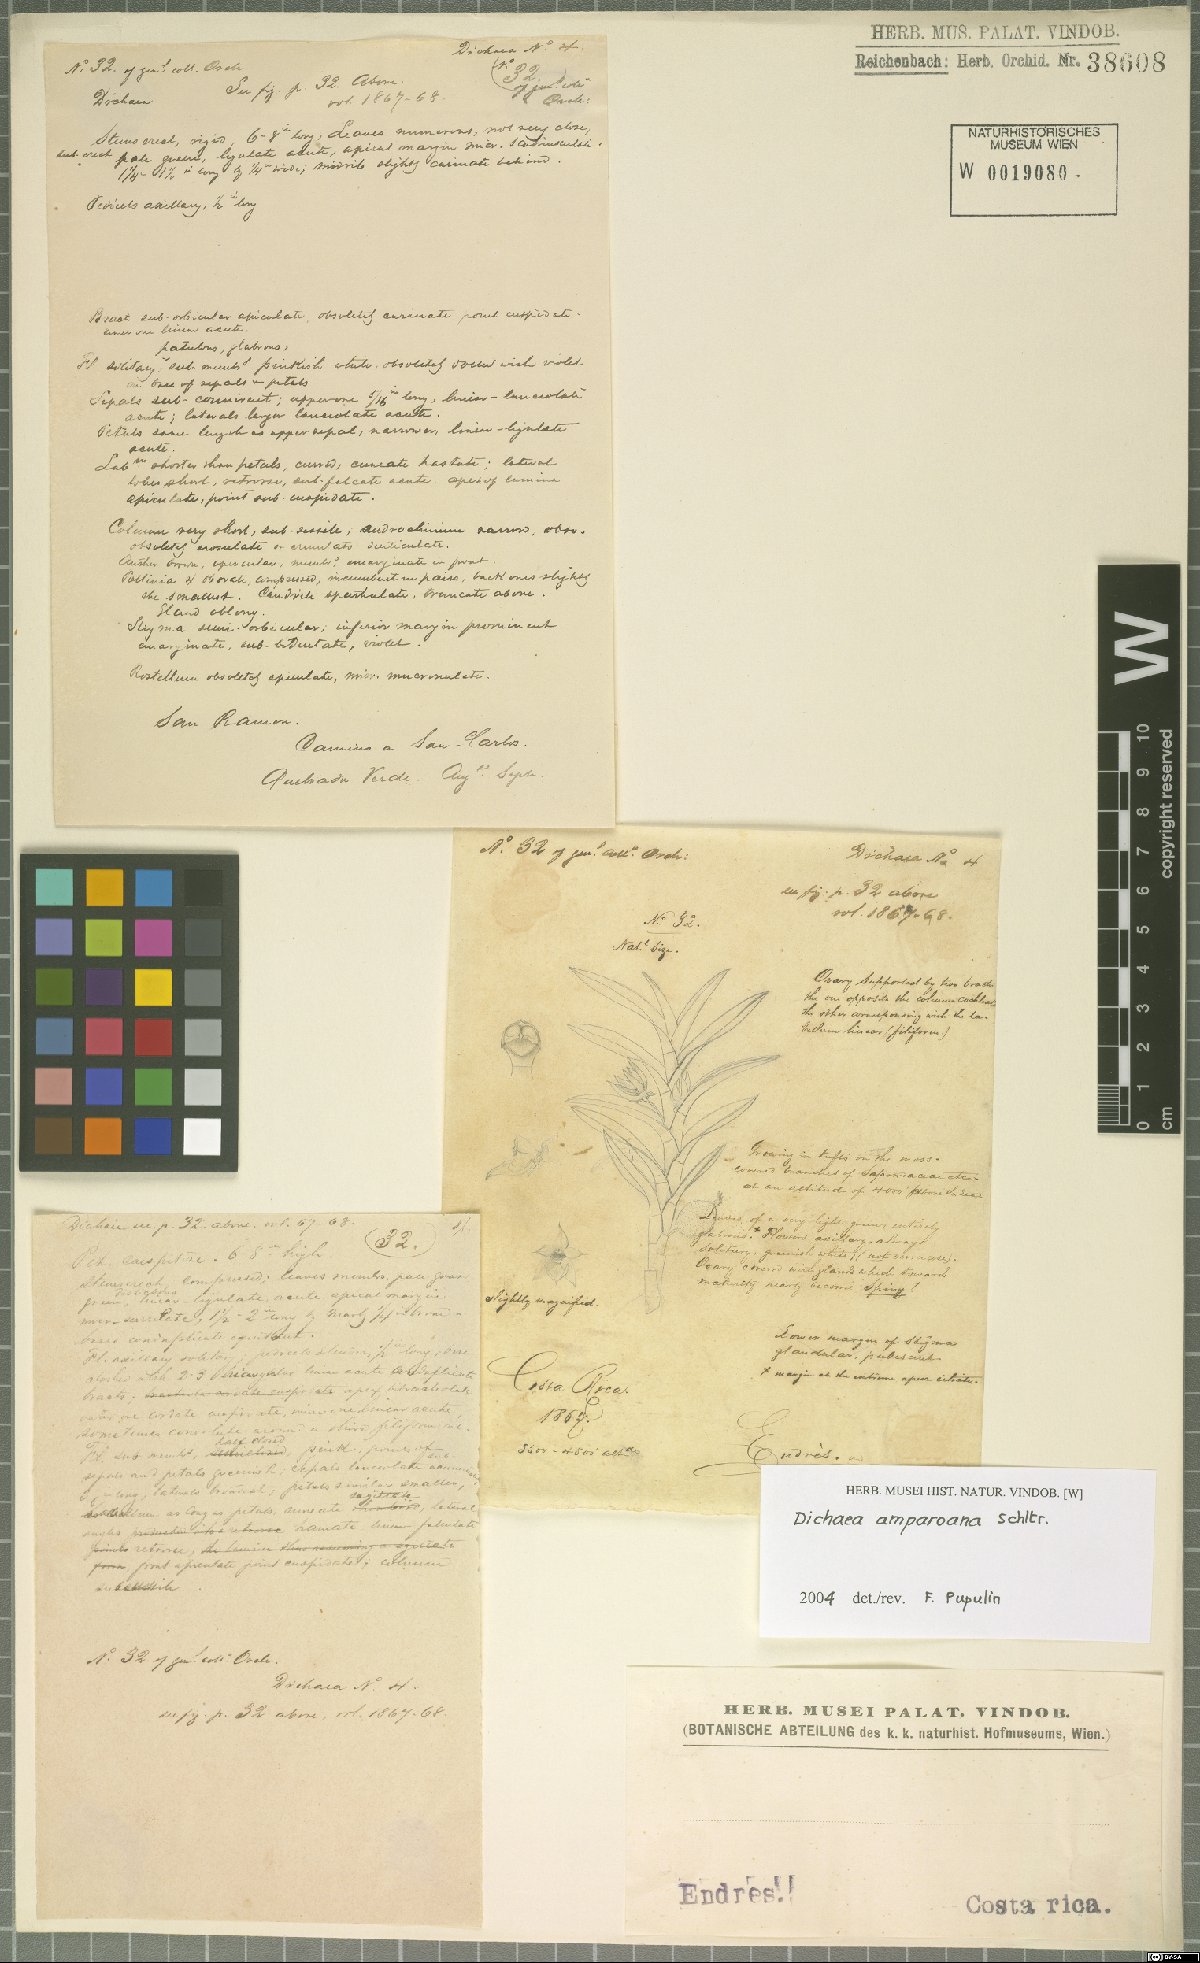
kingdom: Plantae
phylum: Tracheophyta
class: Liliopsida
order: Asparagales
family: Orchidaceae
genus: Dichaea
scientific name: Dichaea amparoana
